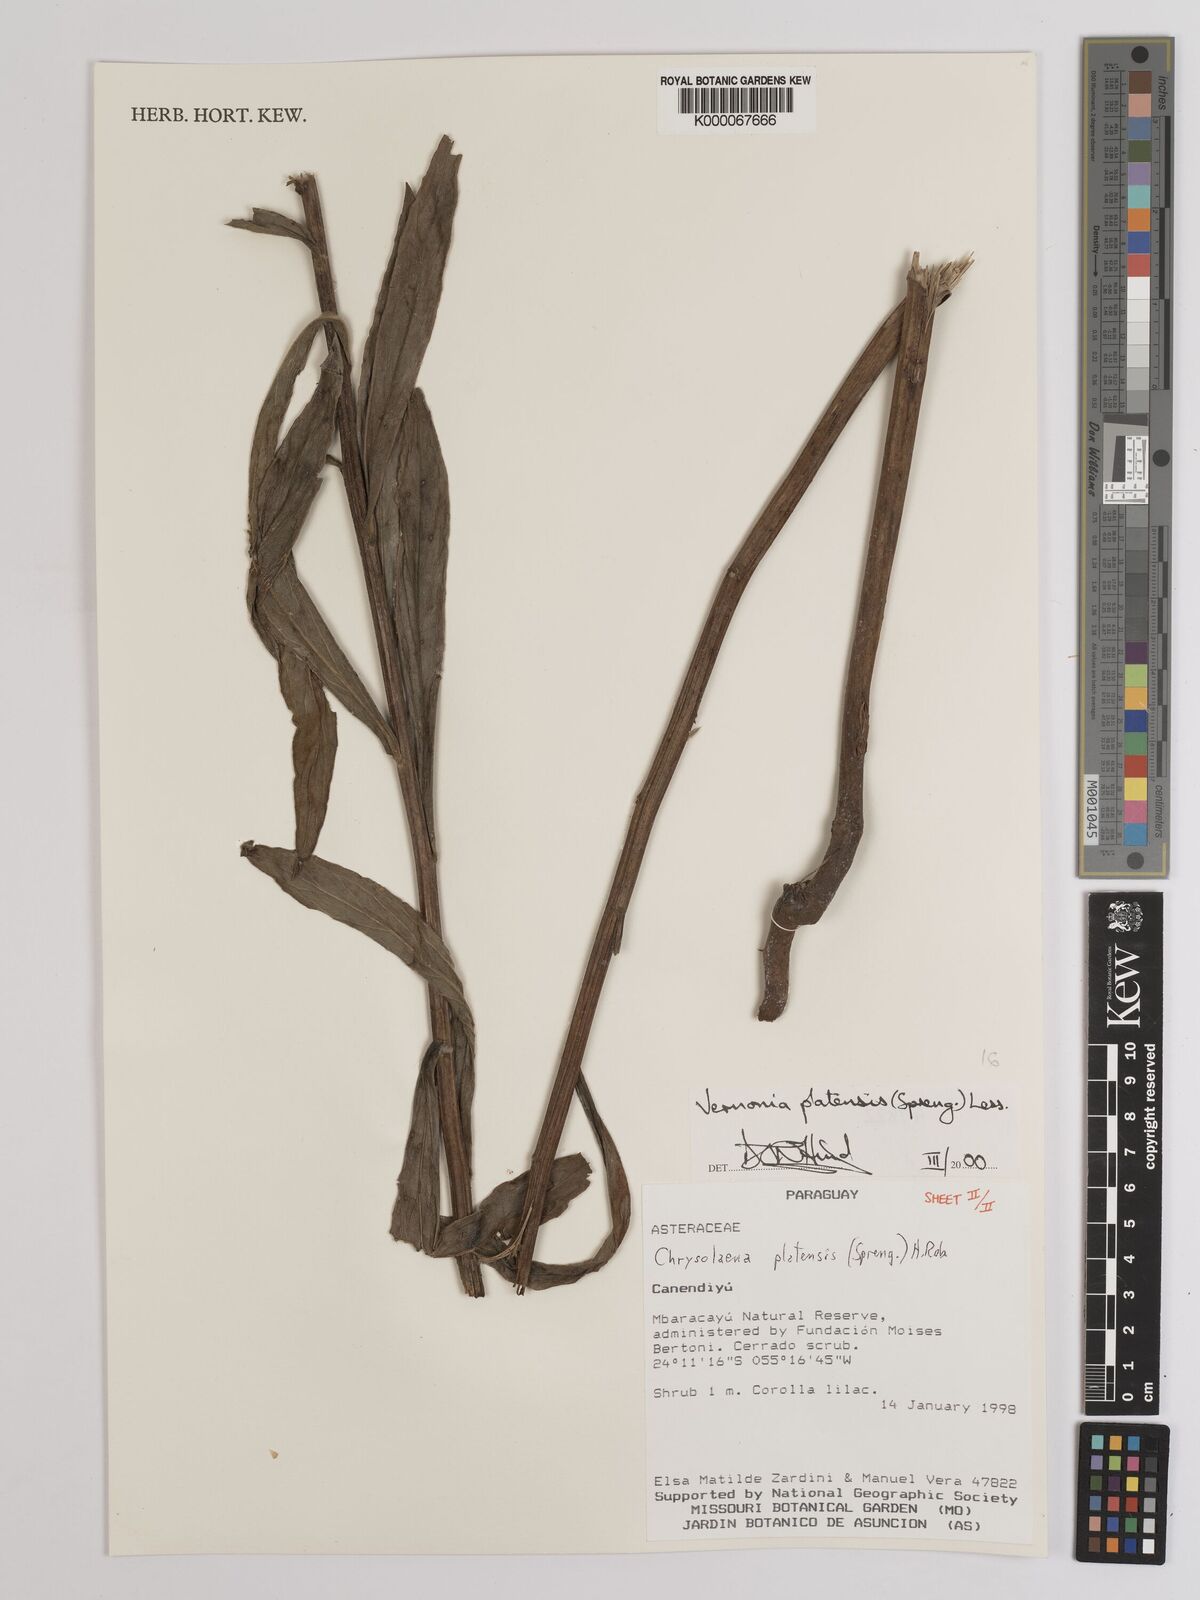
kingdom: Plantae
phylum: Tracheophyta
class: Magnoliopsida
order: Asterales
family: Asteraceae
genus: Chrysolaena
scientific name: Chrysolaena platensis
